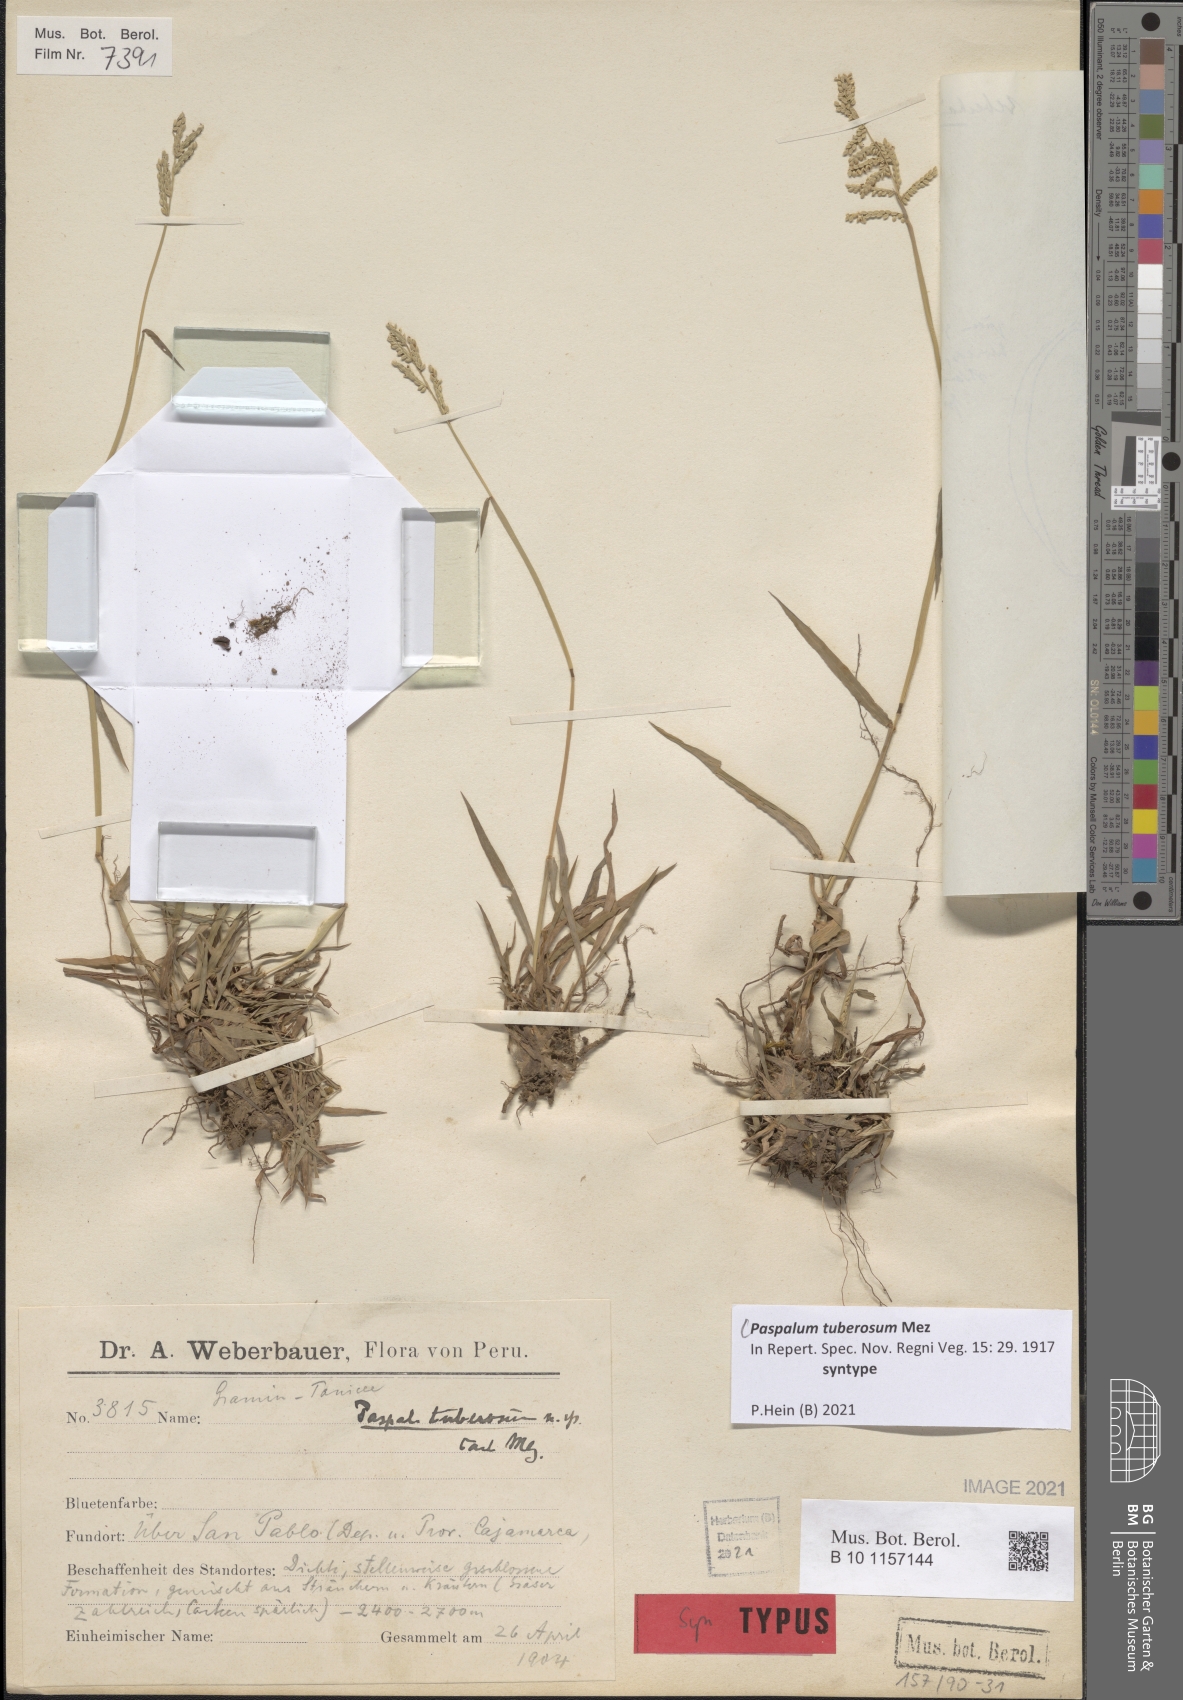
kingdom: Plantae
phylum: Tracheophyta
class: Liliopsida
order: Poales
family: Poaceae
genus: Paspalum
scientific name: Paspalum tuberosum
